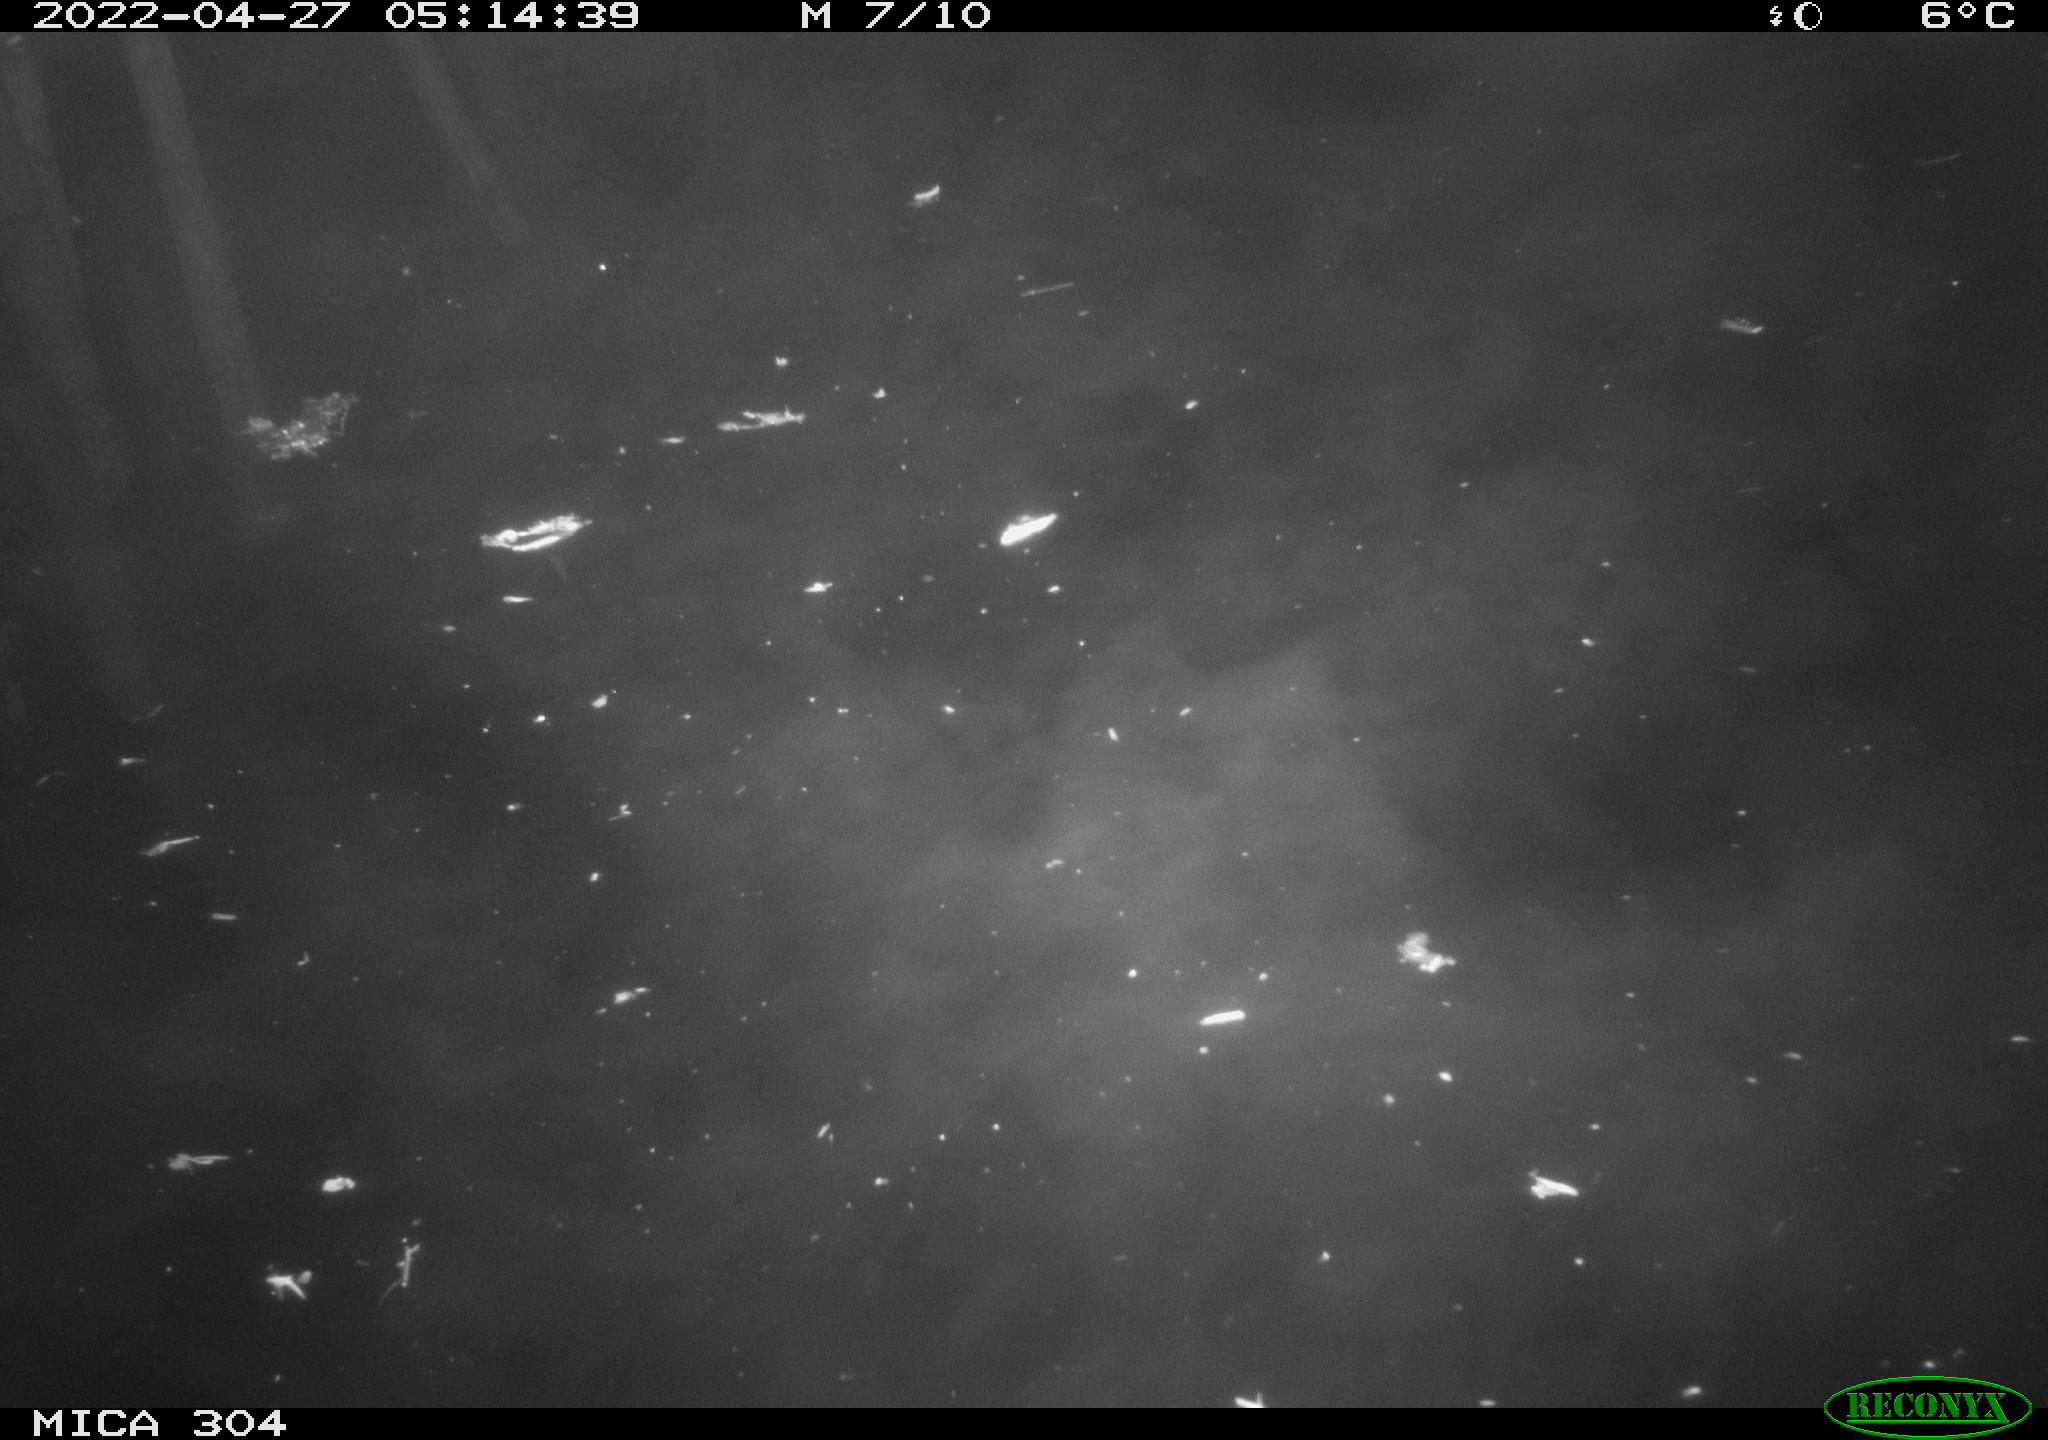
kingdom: Animalia
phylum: Chordata
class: Aves
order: Anseriformes
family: Anatidae
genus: Anas
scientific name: Anas platyrhynchos
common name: Mallard
